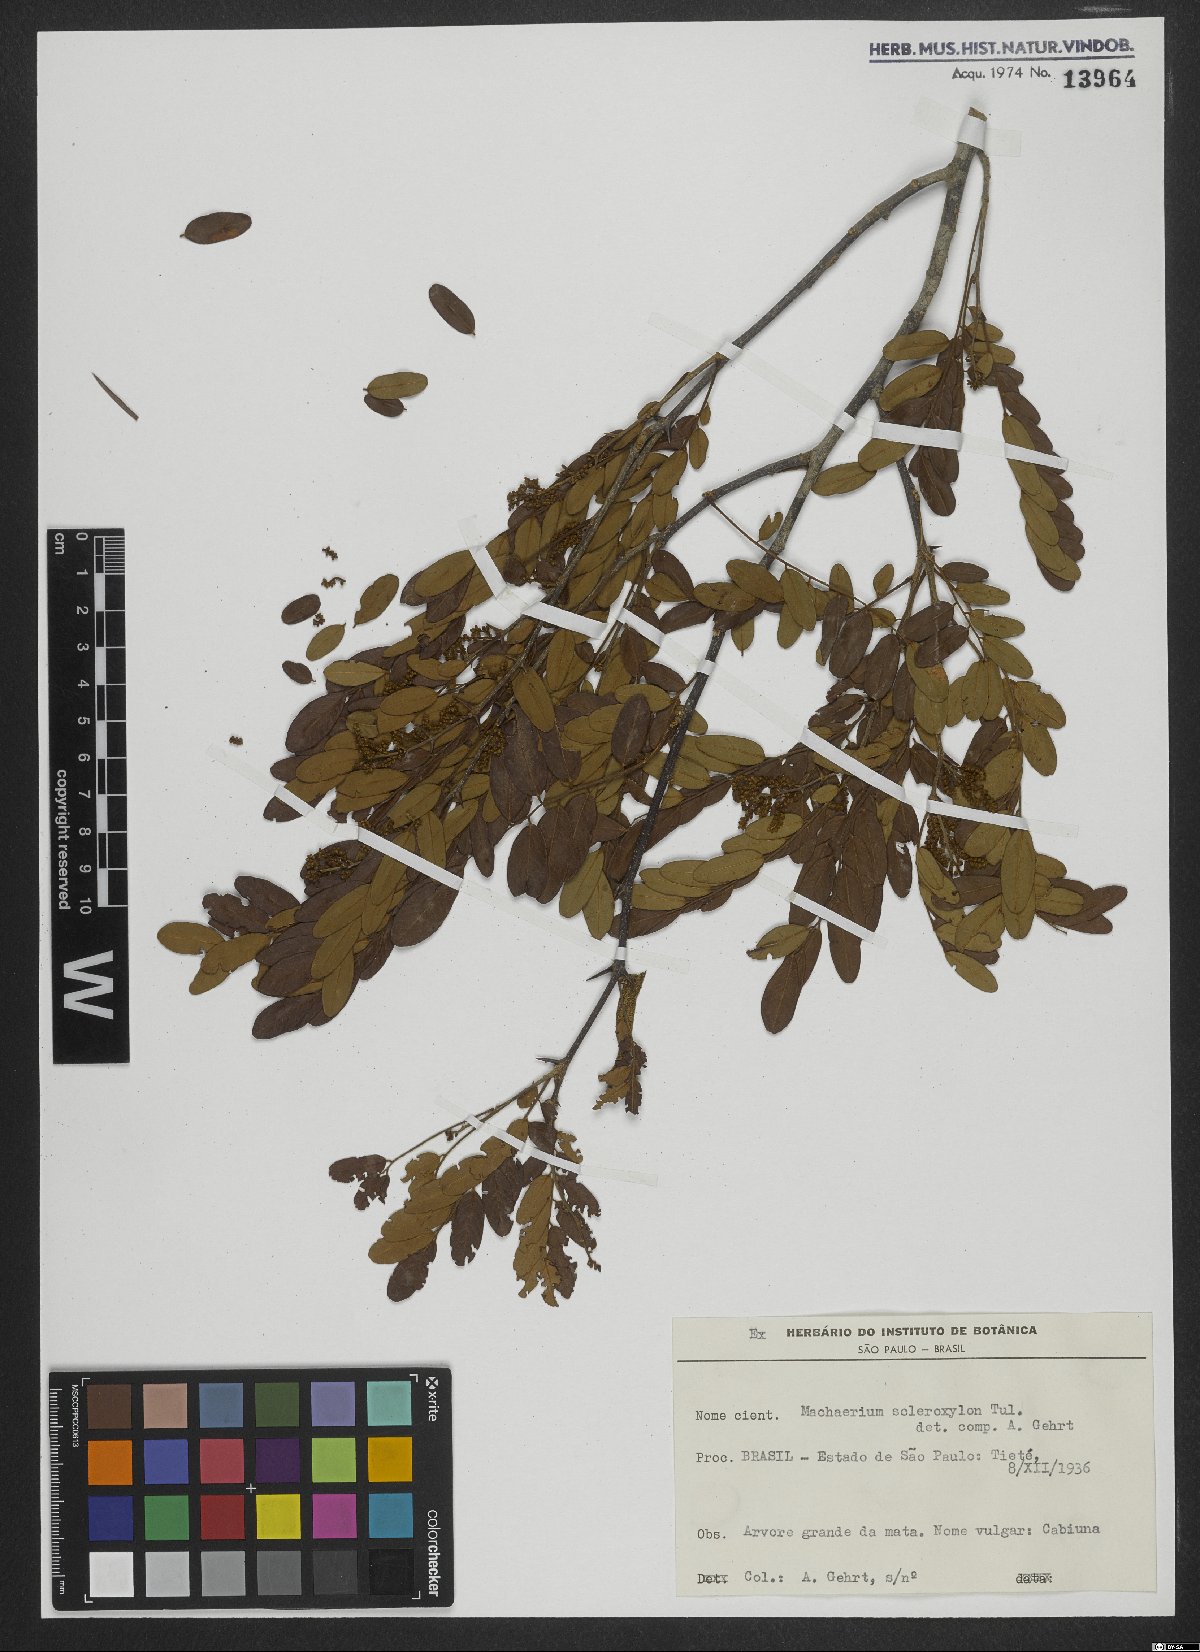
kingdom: Plantae
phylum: Tracheophyta
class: Magnoliopsida
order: Fabales
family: Fabaceae
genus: Machaerium
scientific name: Machaerium scleroxylon
